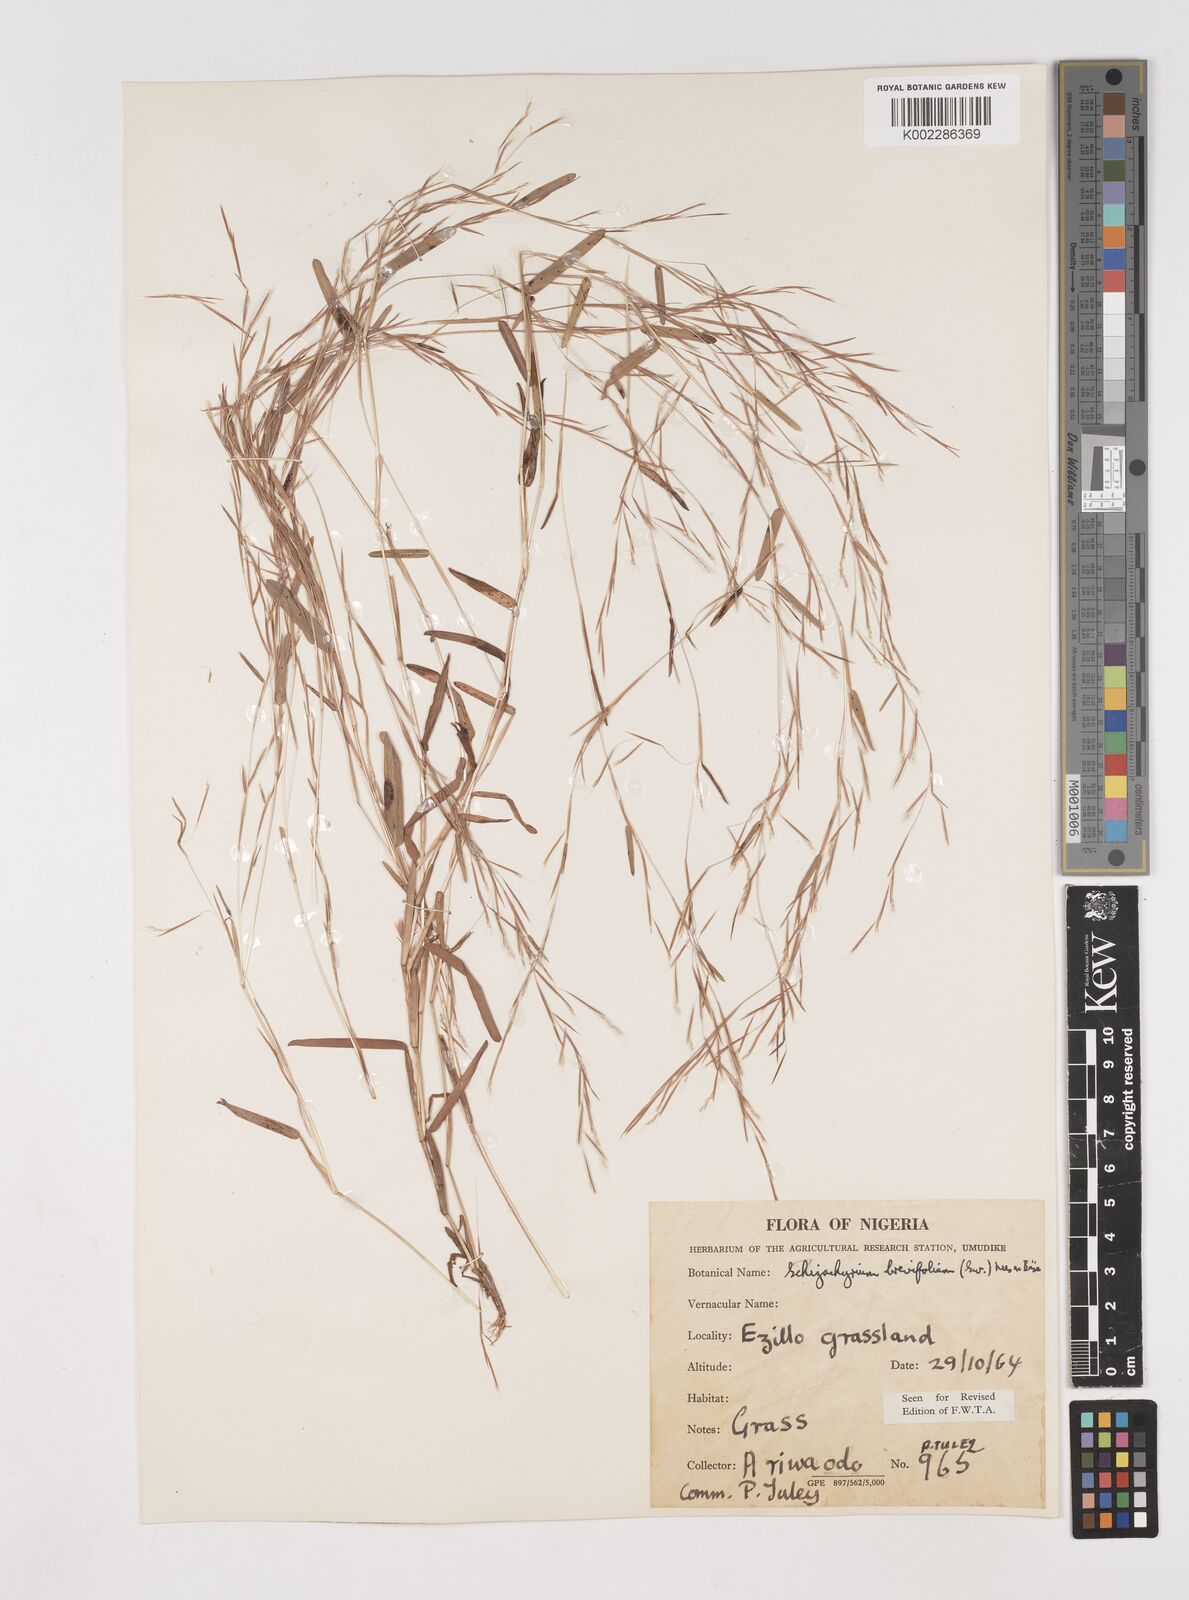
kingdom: Plantae
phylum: Tracheophyta
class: Liliopsida
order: Poales
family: Poaceae
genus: Schizachyrium
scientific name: Schizachyrium brevifolium
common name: Serillo dulce
